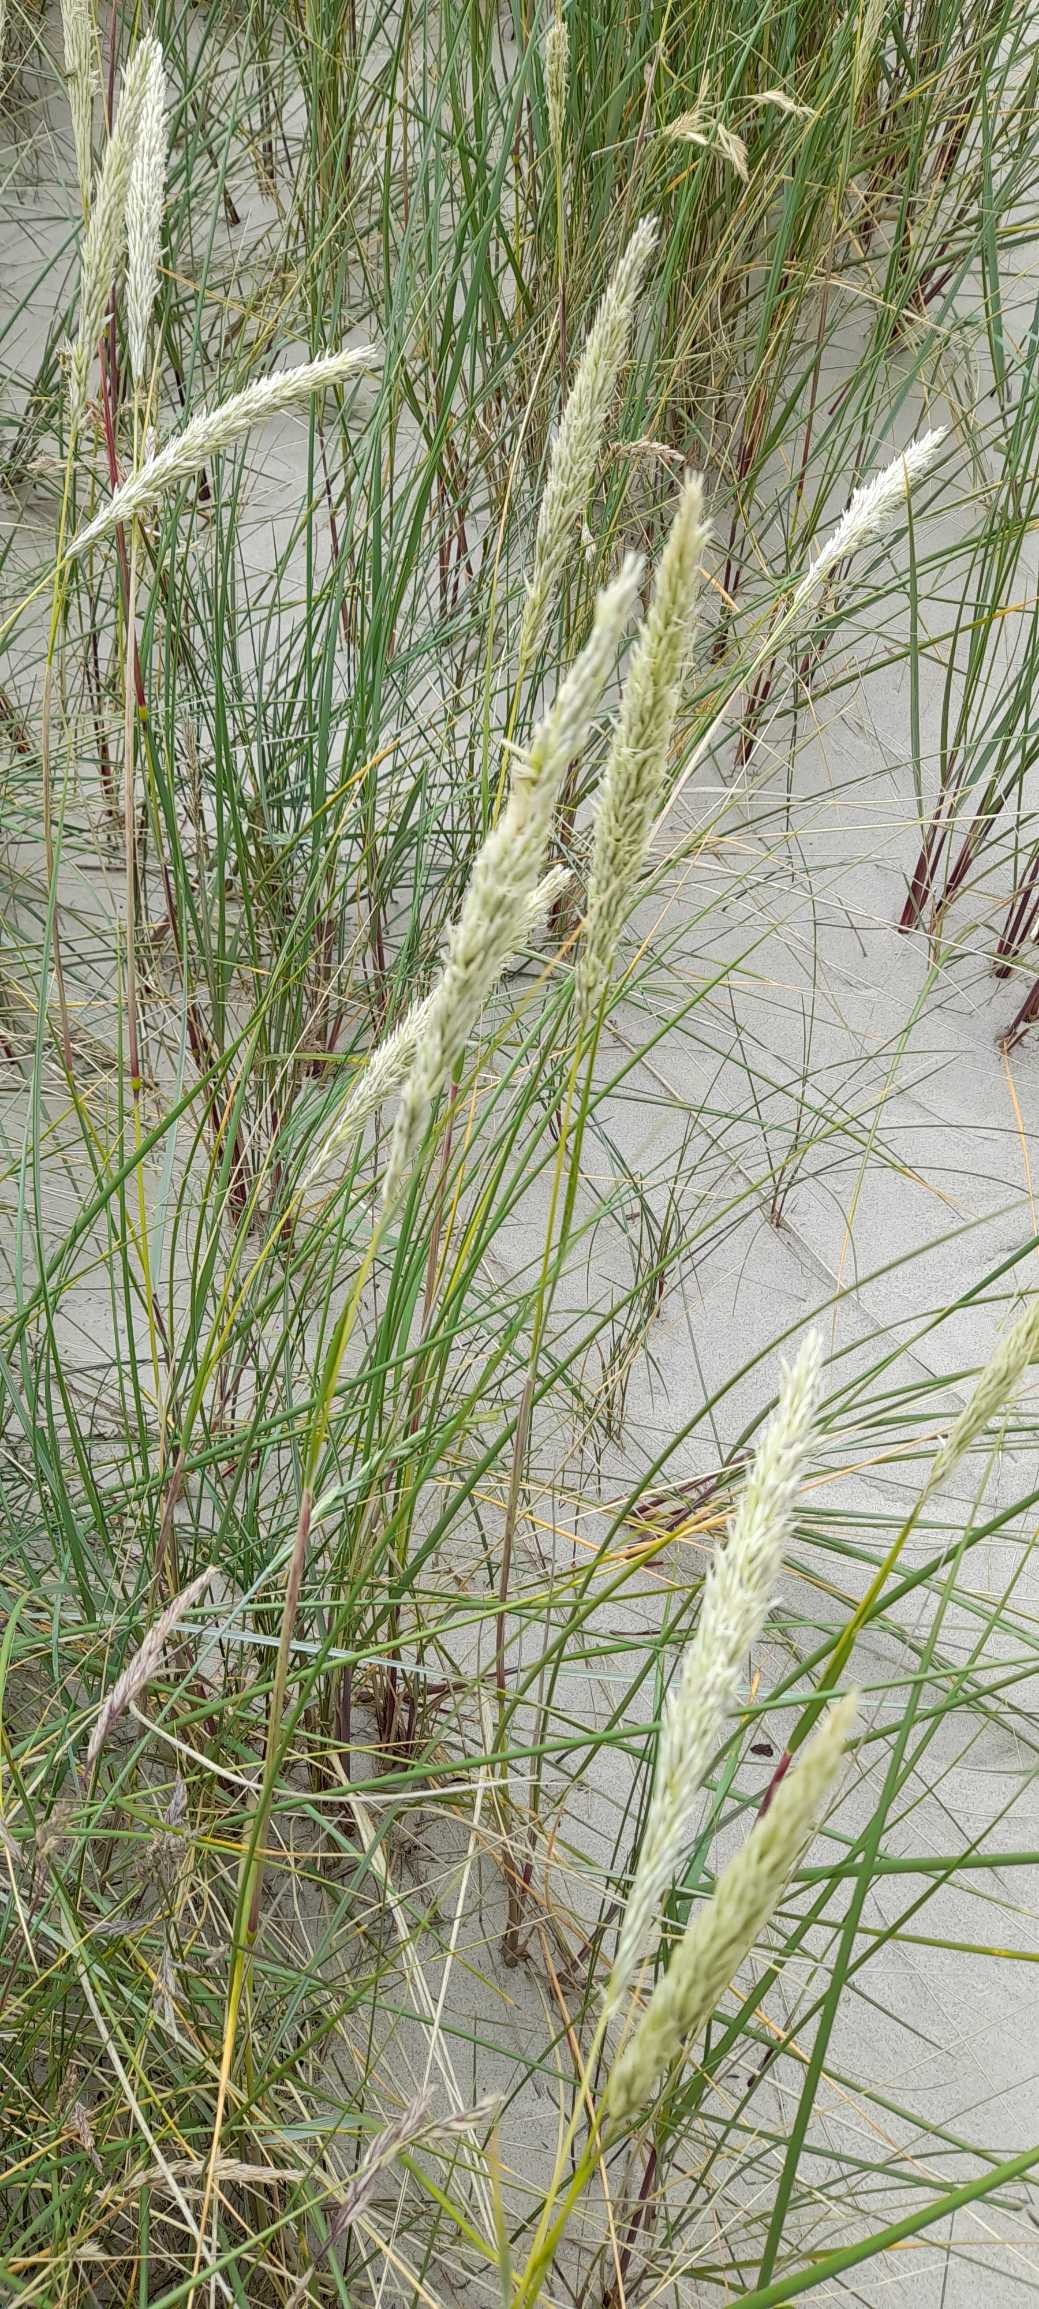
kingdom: Plantae
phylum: Tracheophyta
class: Liliopsida
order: Poales
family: Poaceae
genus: Calamagrostis
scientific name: Calamagrostis arenaria
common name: Sand-hjælme
